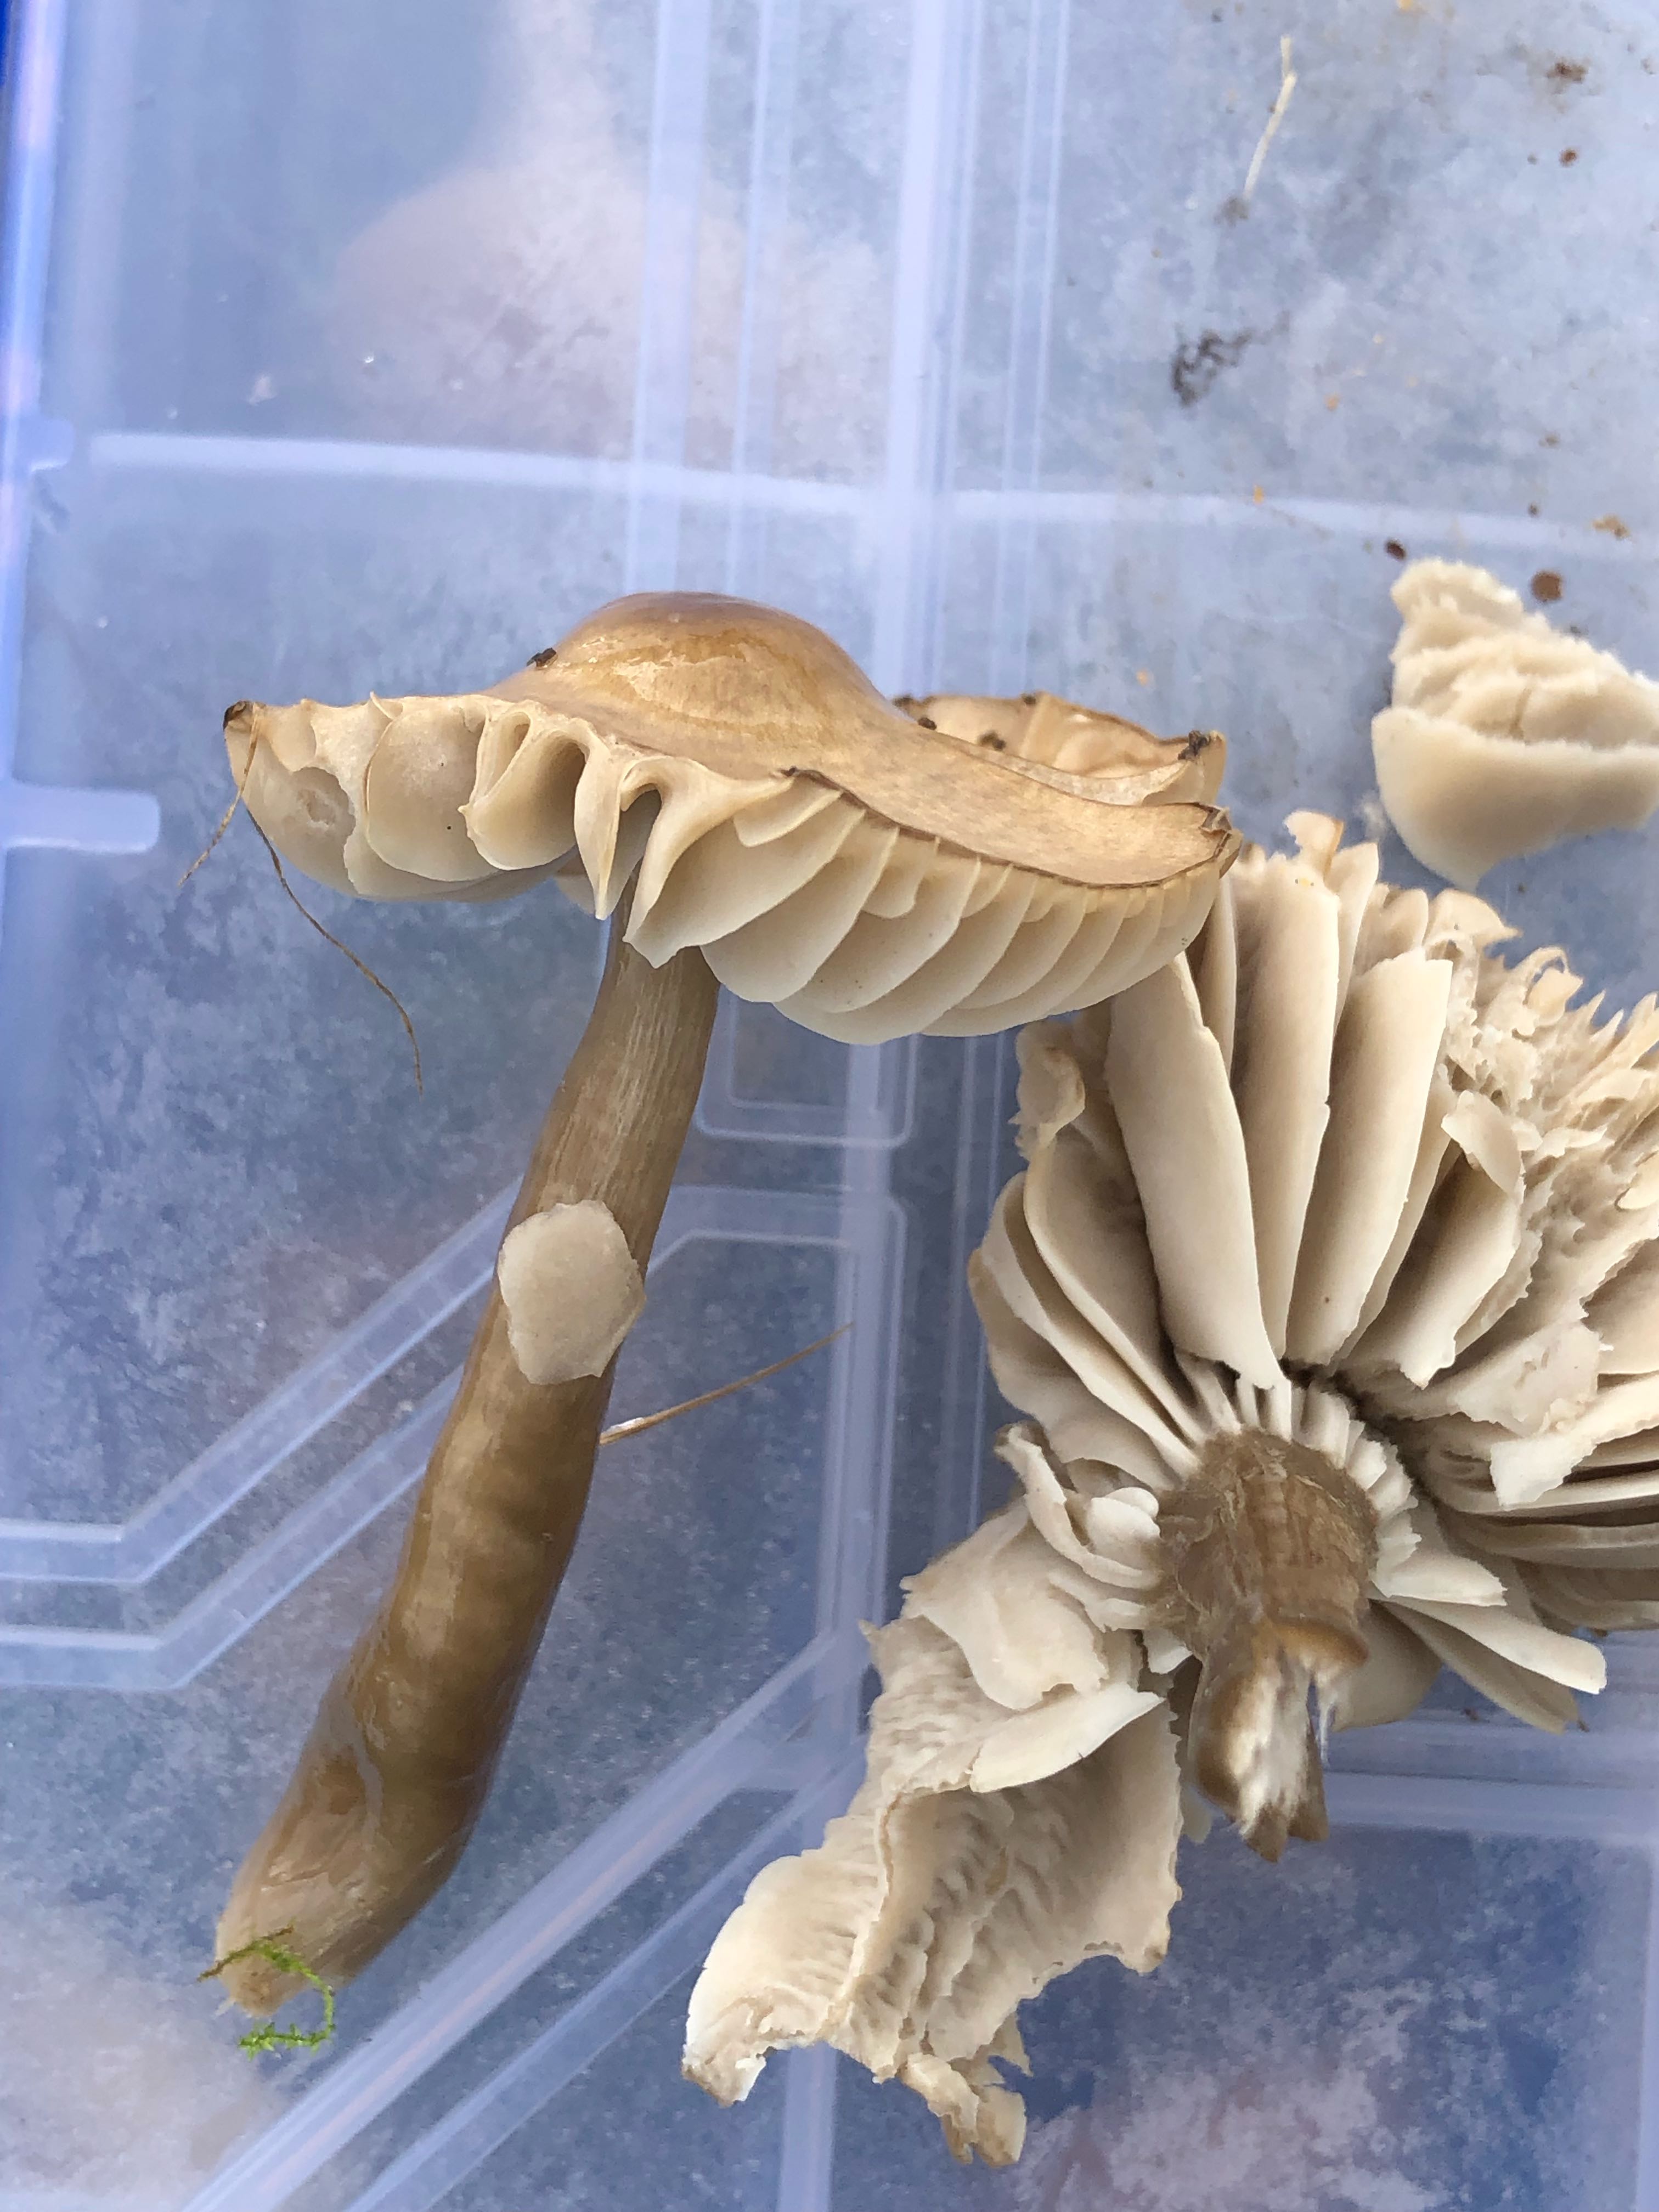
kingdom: Fungi
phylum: Basidiomycota
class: Agaricomycetes
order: Agaricales
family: Hygrophoraceae
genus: Gliophorus
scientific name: Gliophorus irrigatus
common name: slimet vokshat
